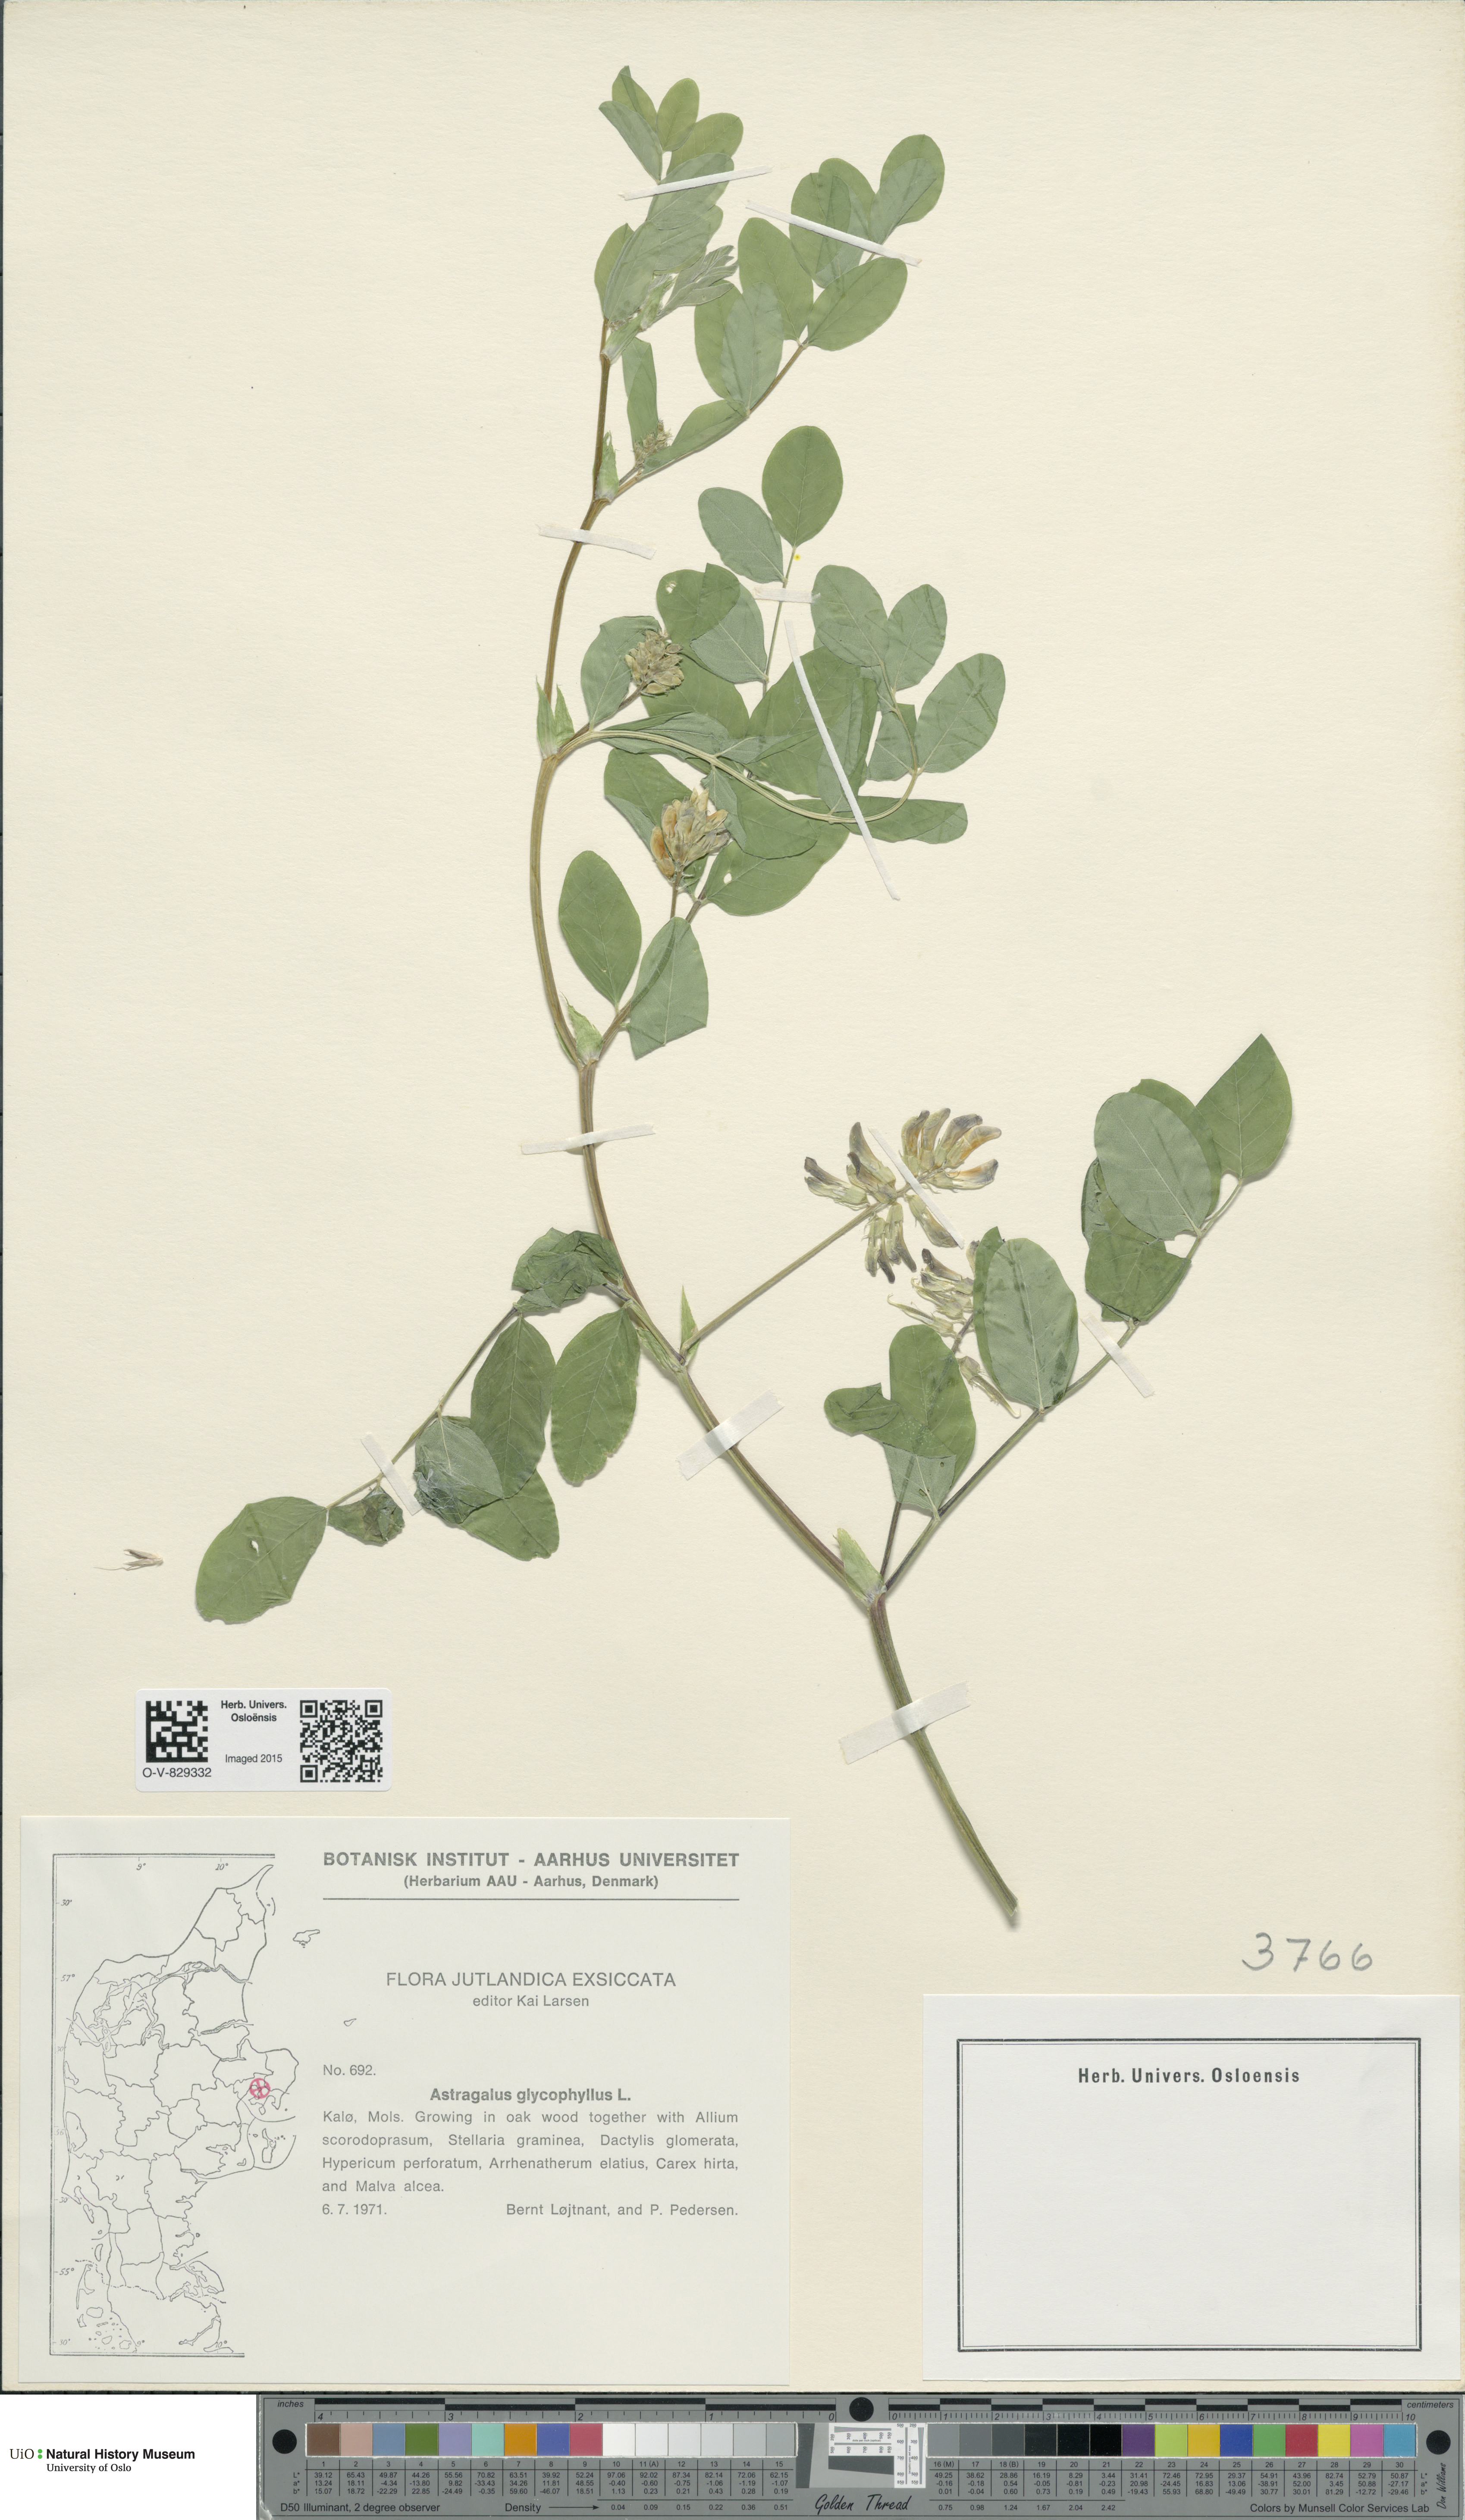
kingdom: Plantae
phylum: Tracheophyta
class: Magnoliopsida
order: Fabales
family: Fabaceae
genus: Astragalus
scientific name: Astragalus glycyphyllos
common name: Wild liquorice
